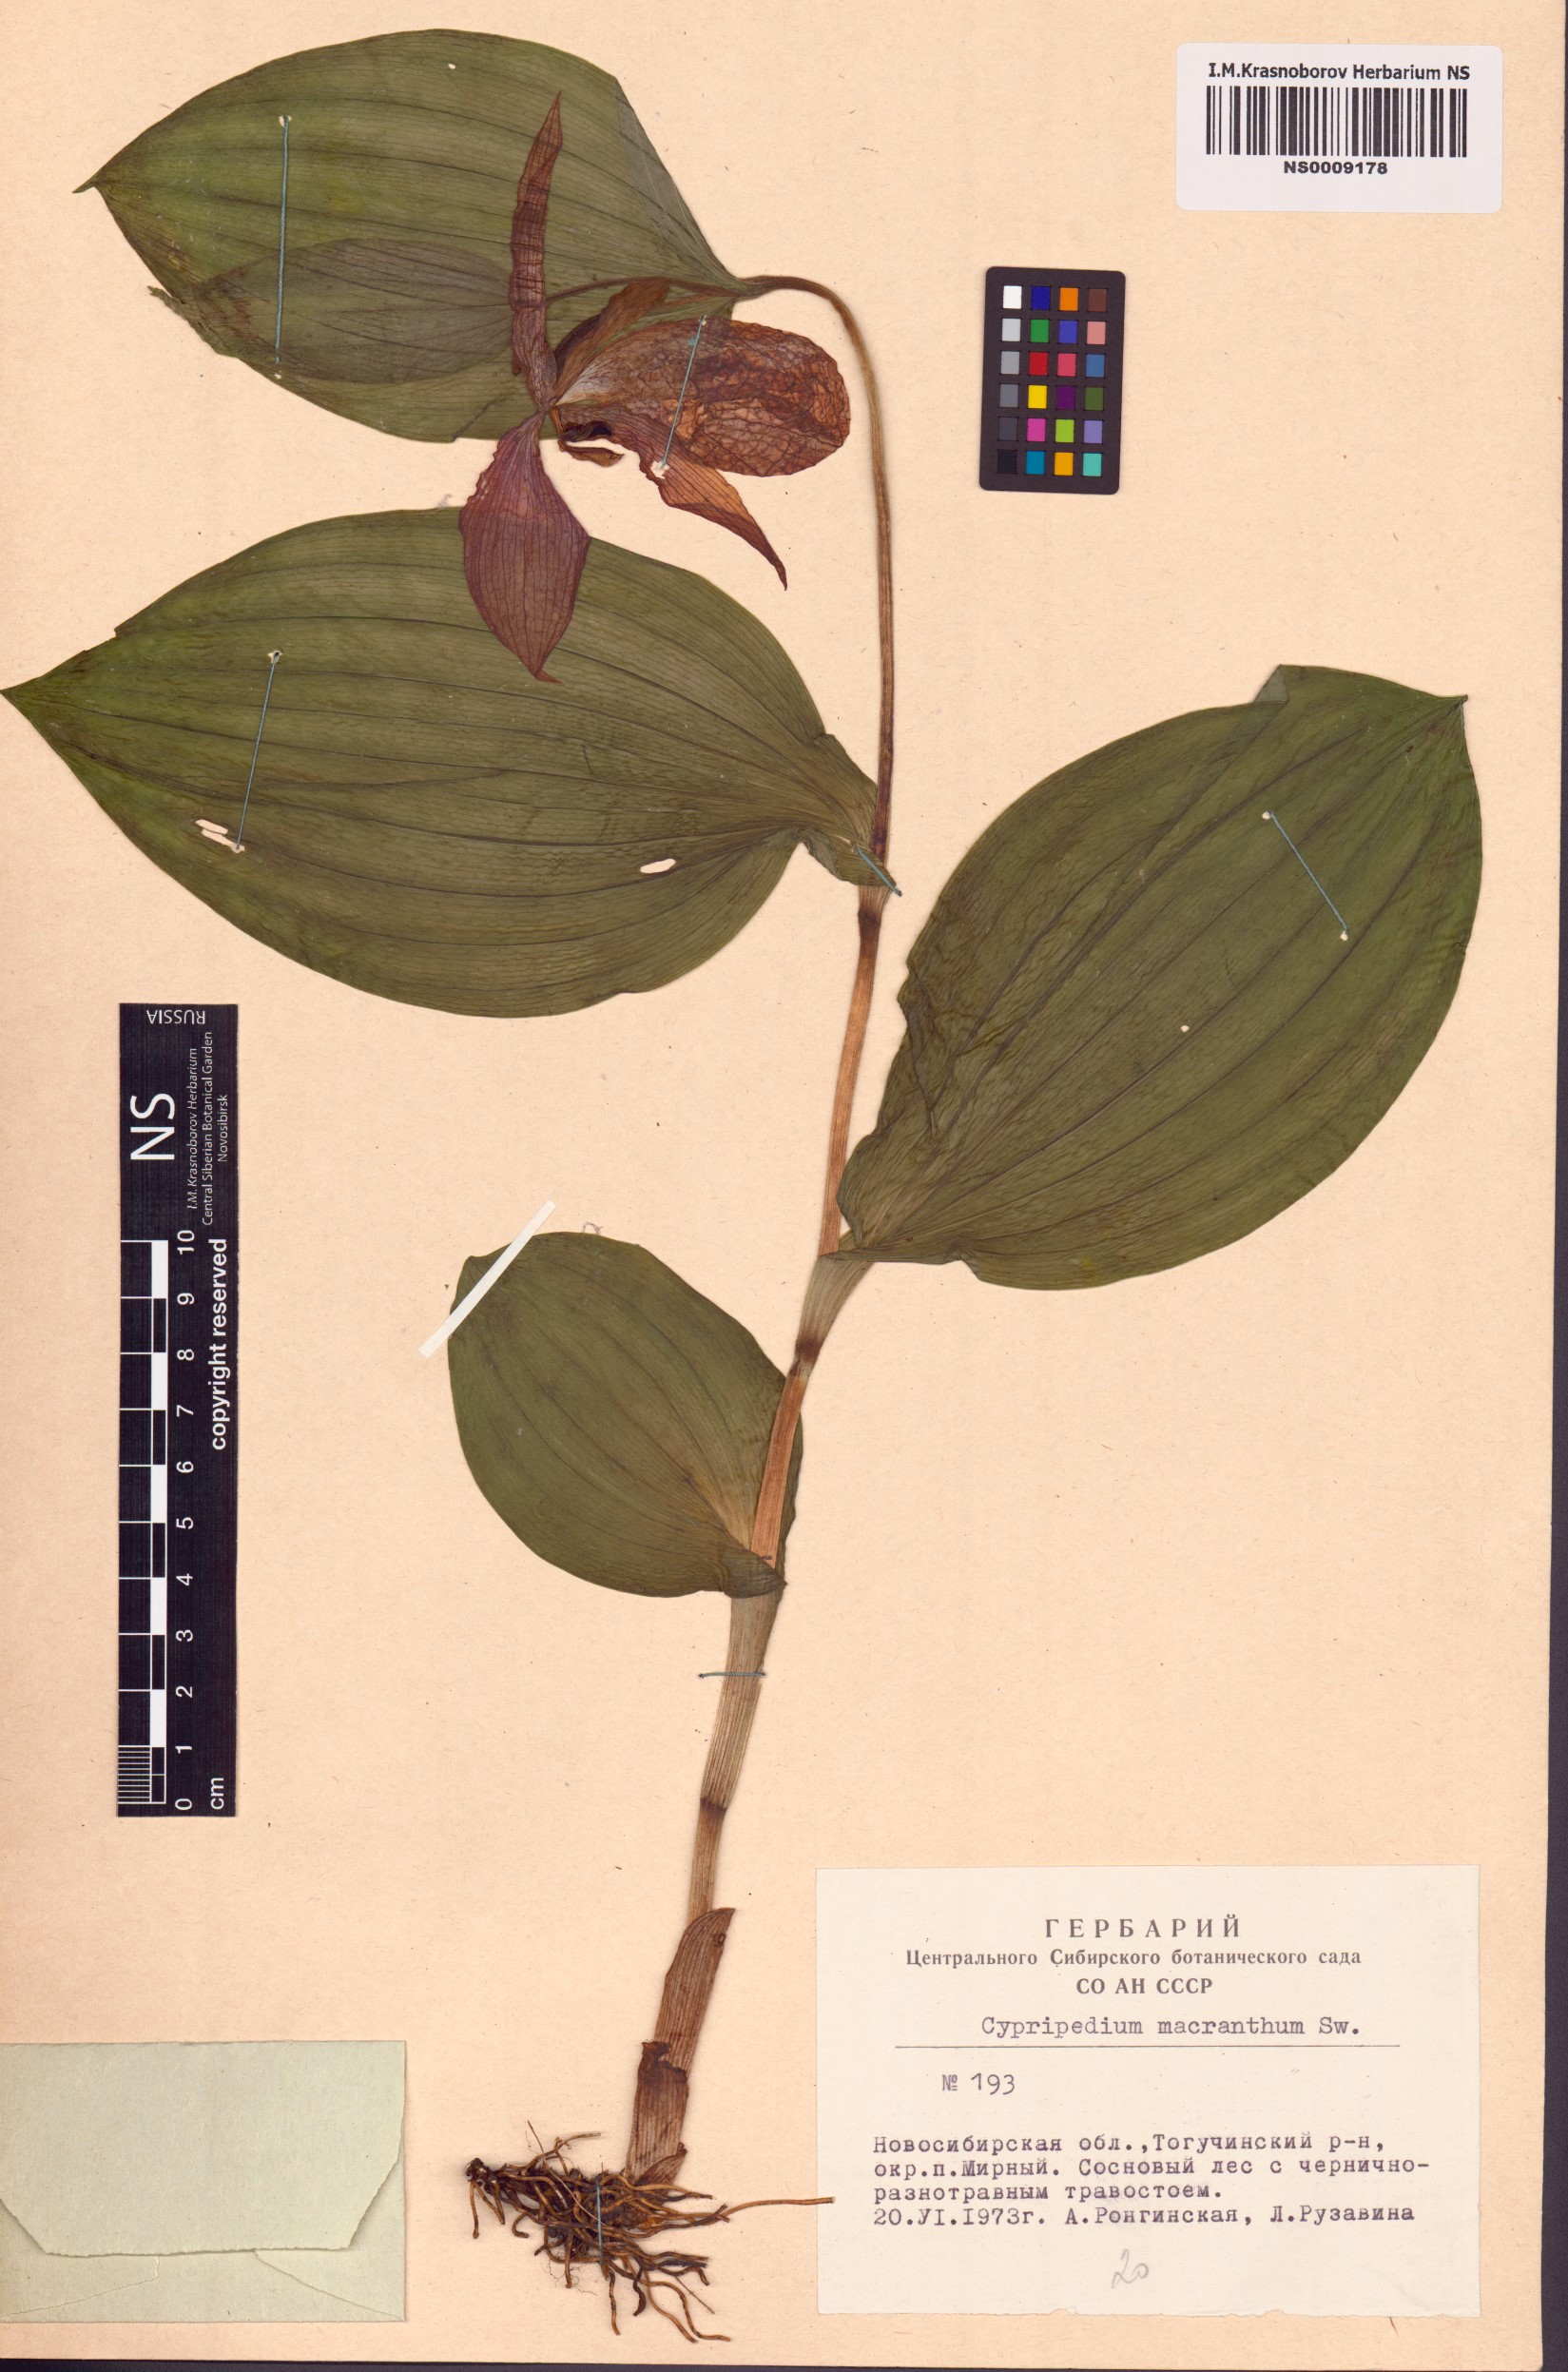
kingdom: Plantae
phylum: Tracheophyta
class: Liliopsida
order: Asparagales
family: Orchidaceae
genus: Cypripedium
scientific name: Cypripedium macranthos
